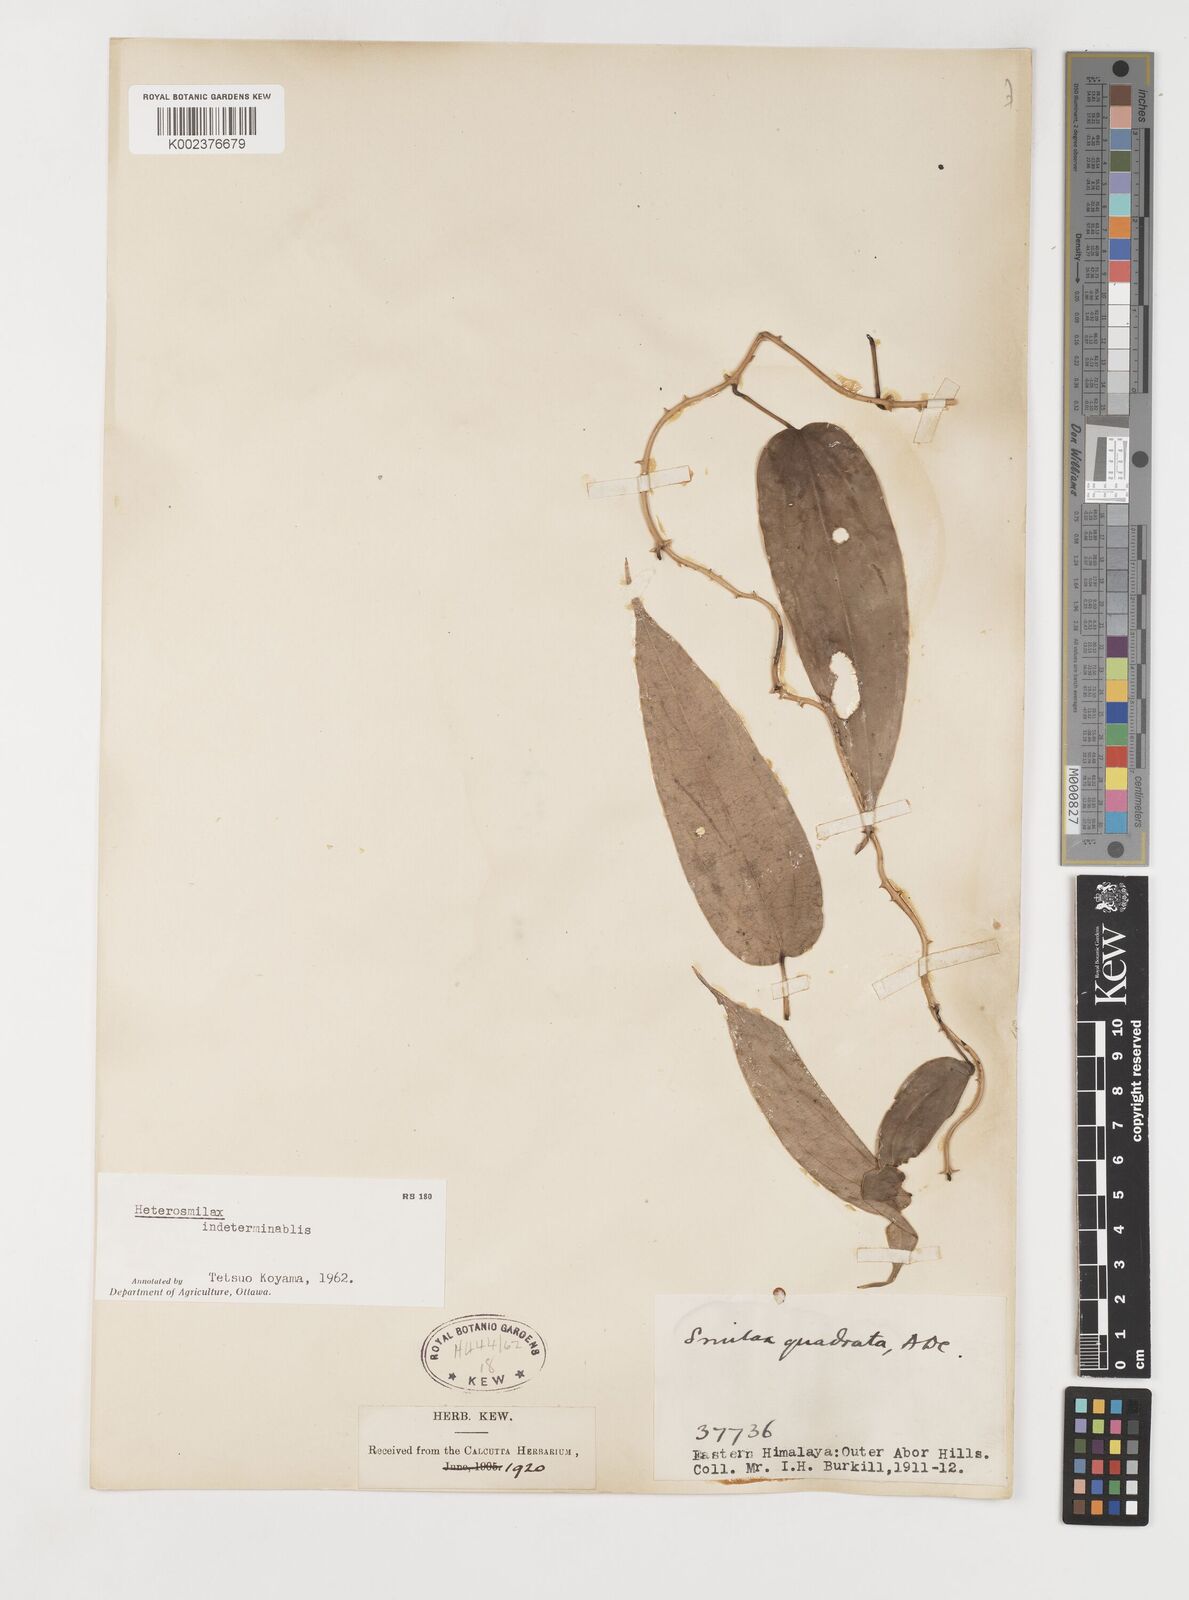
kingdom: Plantae
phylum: Tracheophyta
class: Liliopsida
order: Liliales
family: Smilacaceae
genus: Smilax
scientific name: Smilax quadrata
